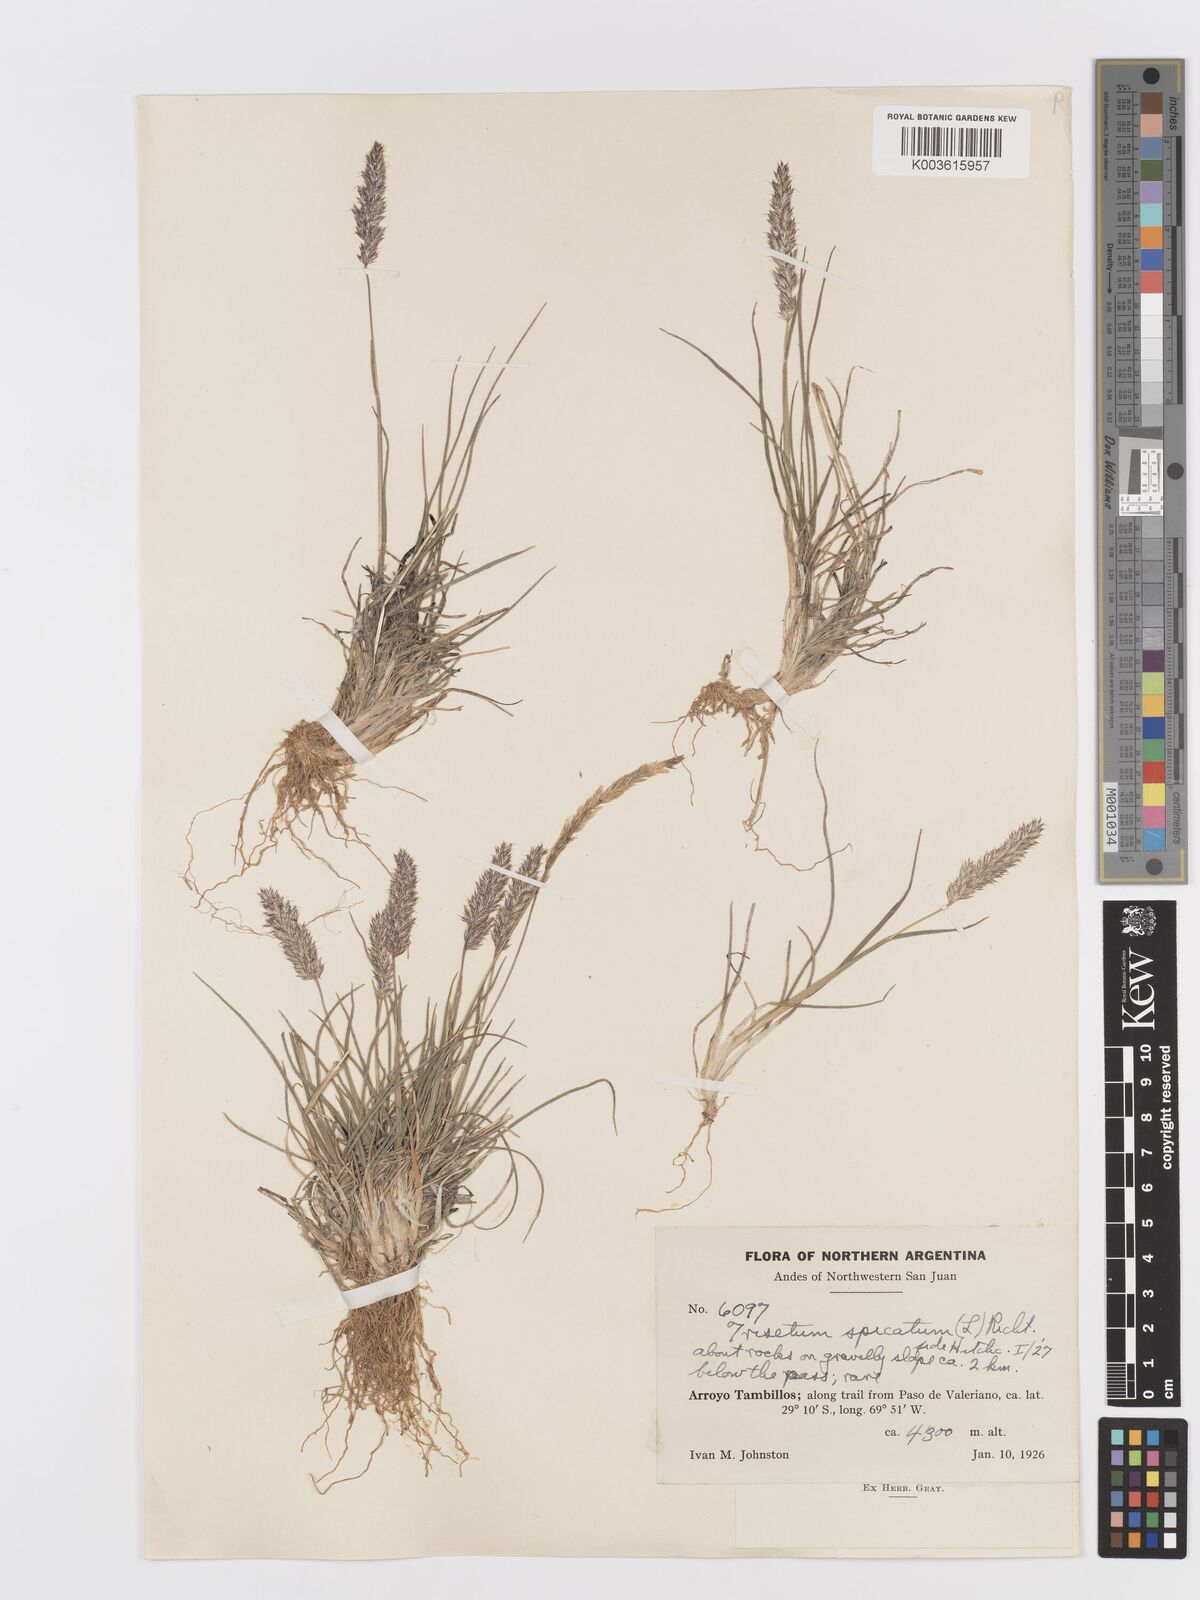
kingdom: Plantae
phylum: Tracheophyta
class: Liliopsida
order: Poales
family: Poaceae
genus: Koeleria
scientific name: Koeleria spicata
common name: Mountain trisetum
